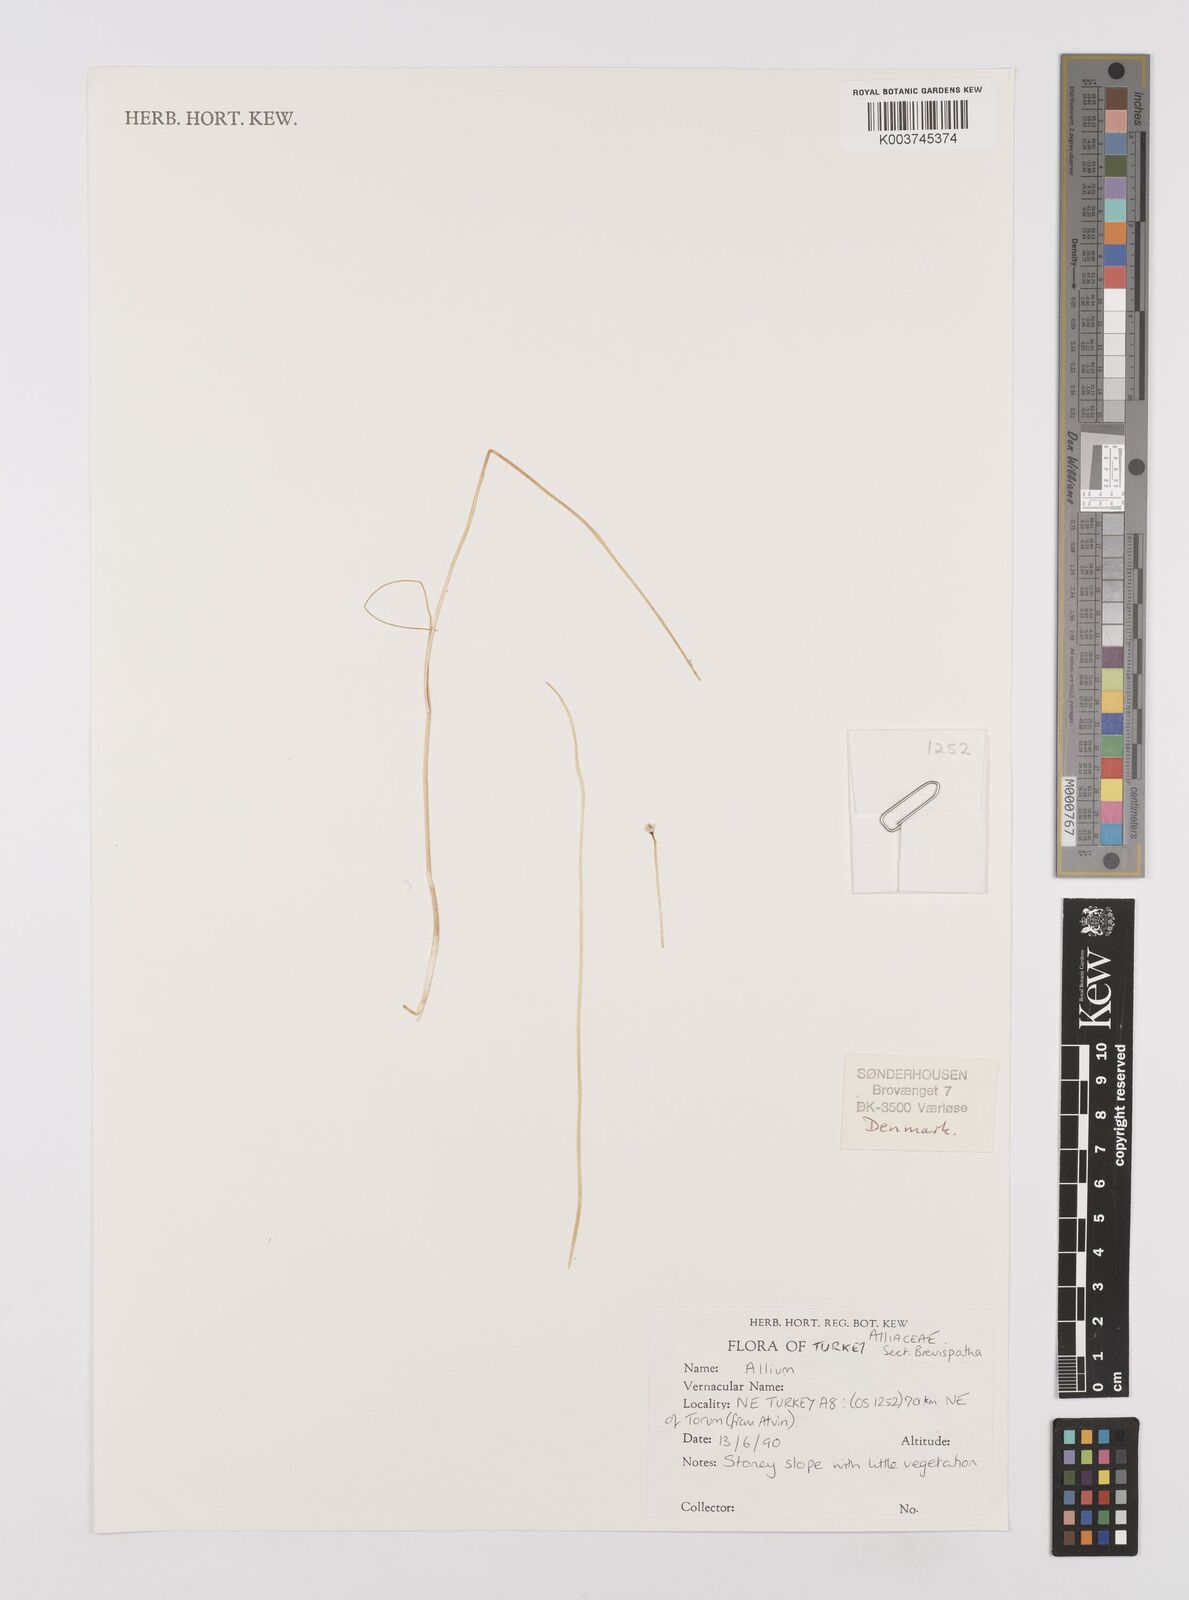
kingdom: Plantae
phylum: Tracheophyta
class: Liliopsida
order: Asparagales
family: Amaryllidaceae
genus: Allium
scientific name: Allium
